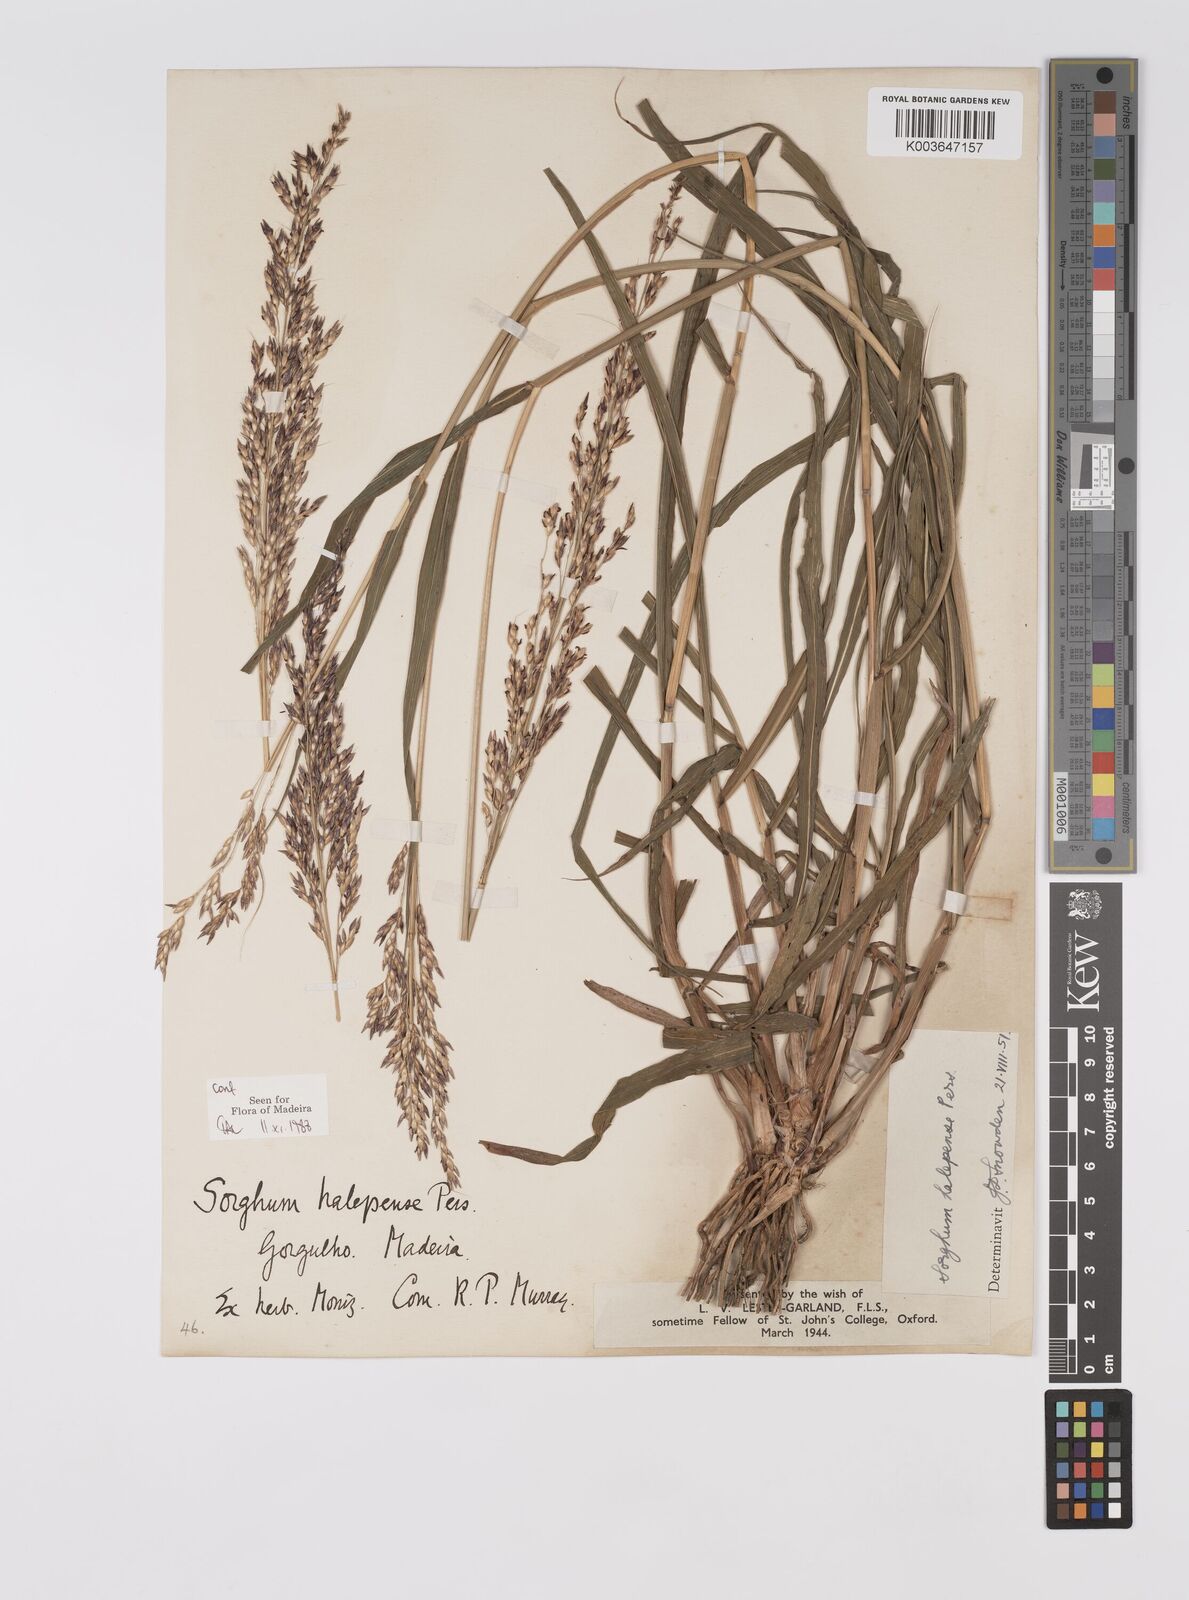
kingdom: Plantae
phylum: Tracheophyta
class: Liliopsida
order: Poales
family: Poaceae
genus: Sorghum
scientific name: Sorghum halepense
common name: Johnson-grass
